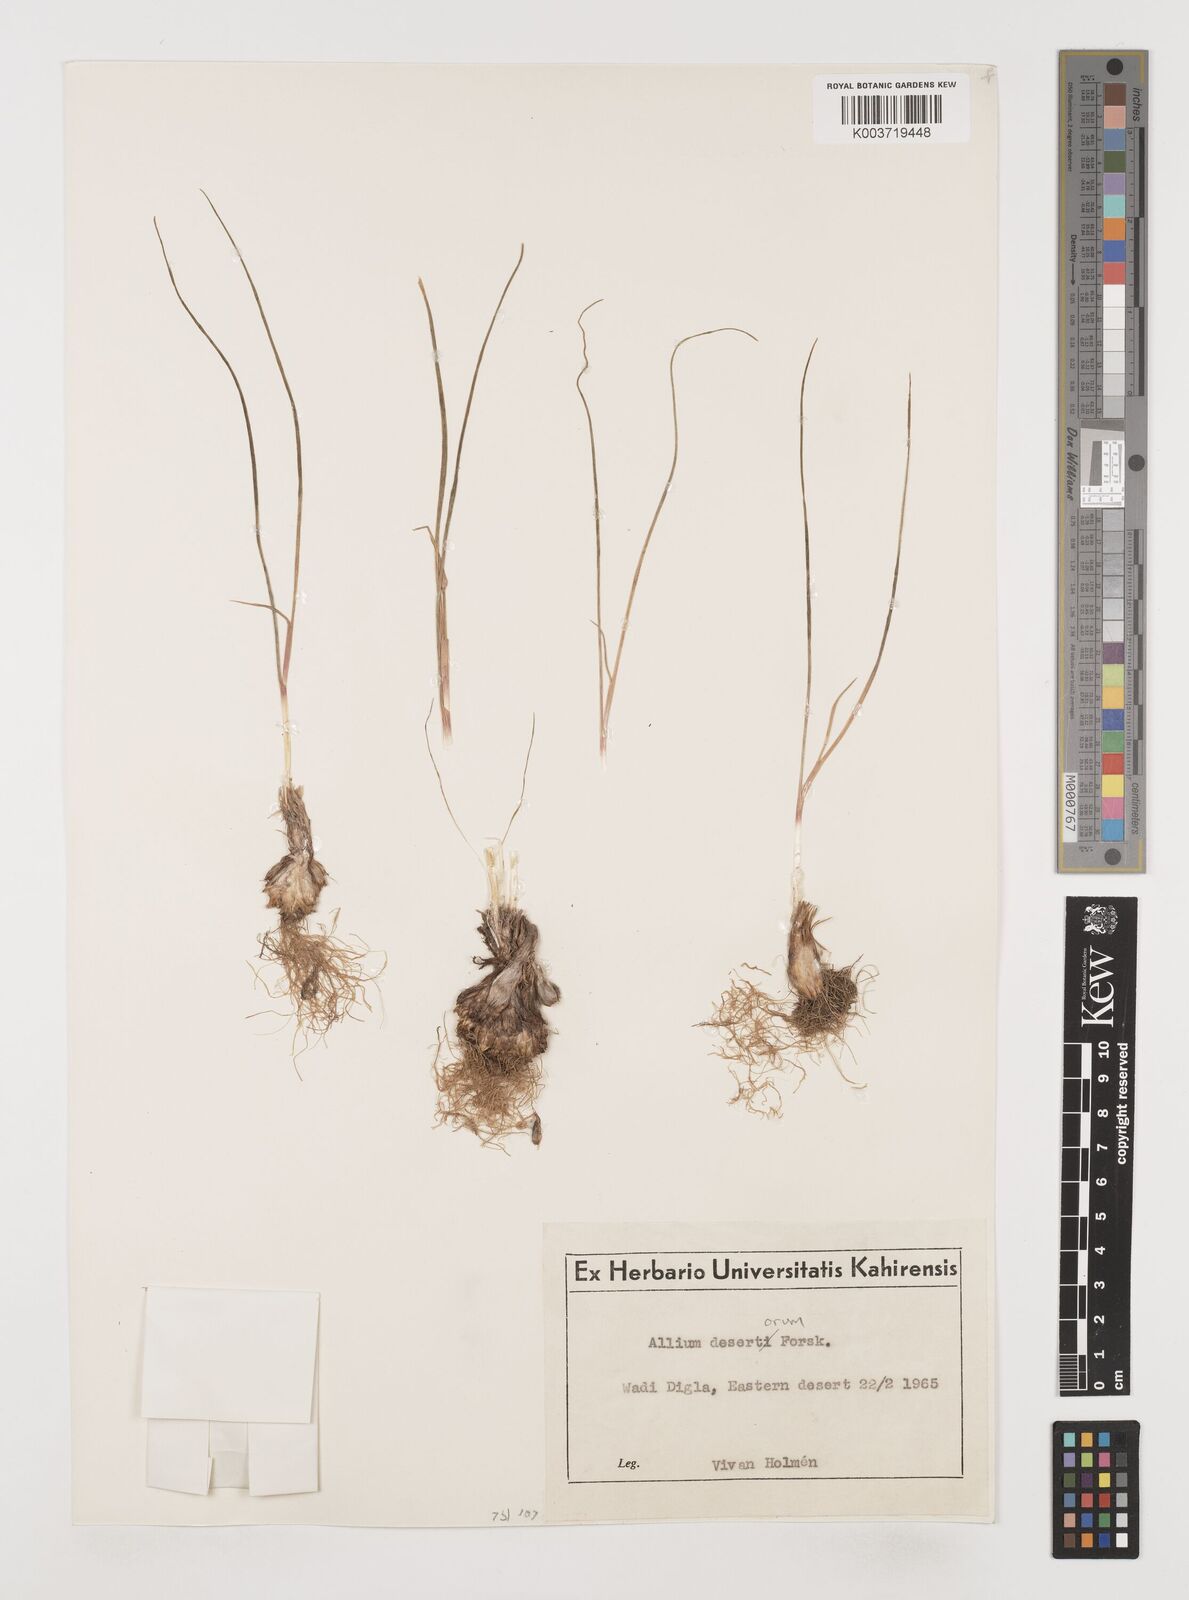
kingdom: Plantae
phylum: Tracheophyta
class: Liliopsida
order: Asparagales
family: Amaryllidaceae
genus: Allium
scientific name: Allium desertorum
